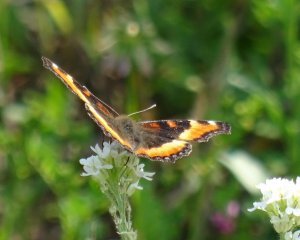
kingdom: Animalia
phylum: Arthropoda
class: Insecta
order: Lepidoptera
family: Nymphalidae
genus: Aglais
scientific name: Aglais milberti
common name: Milbert's Tortoiseshell
